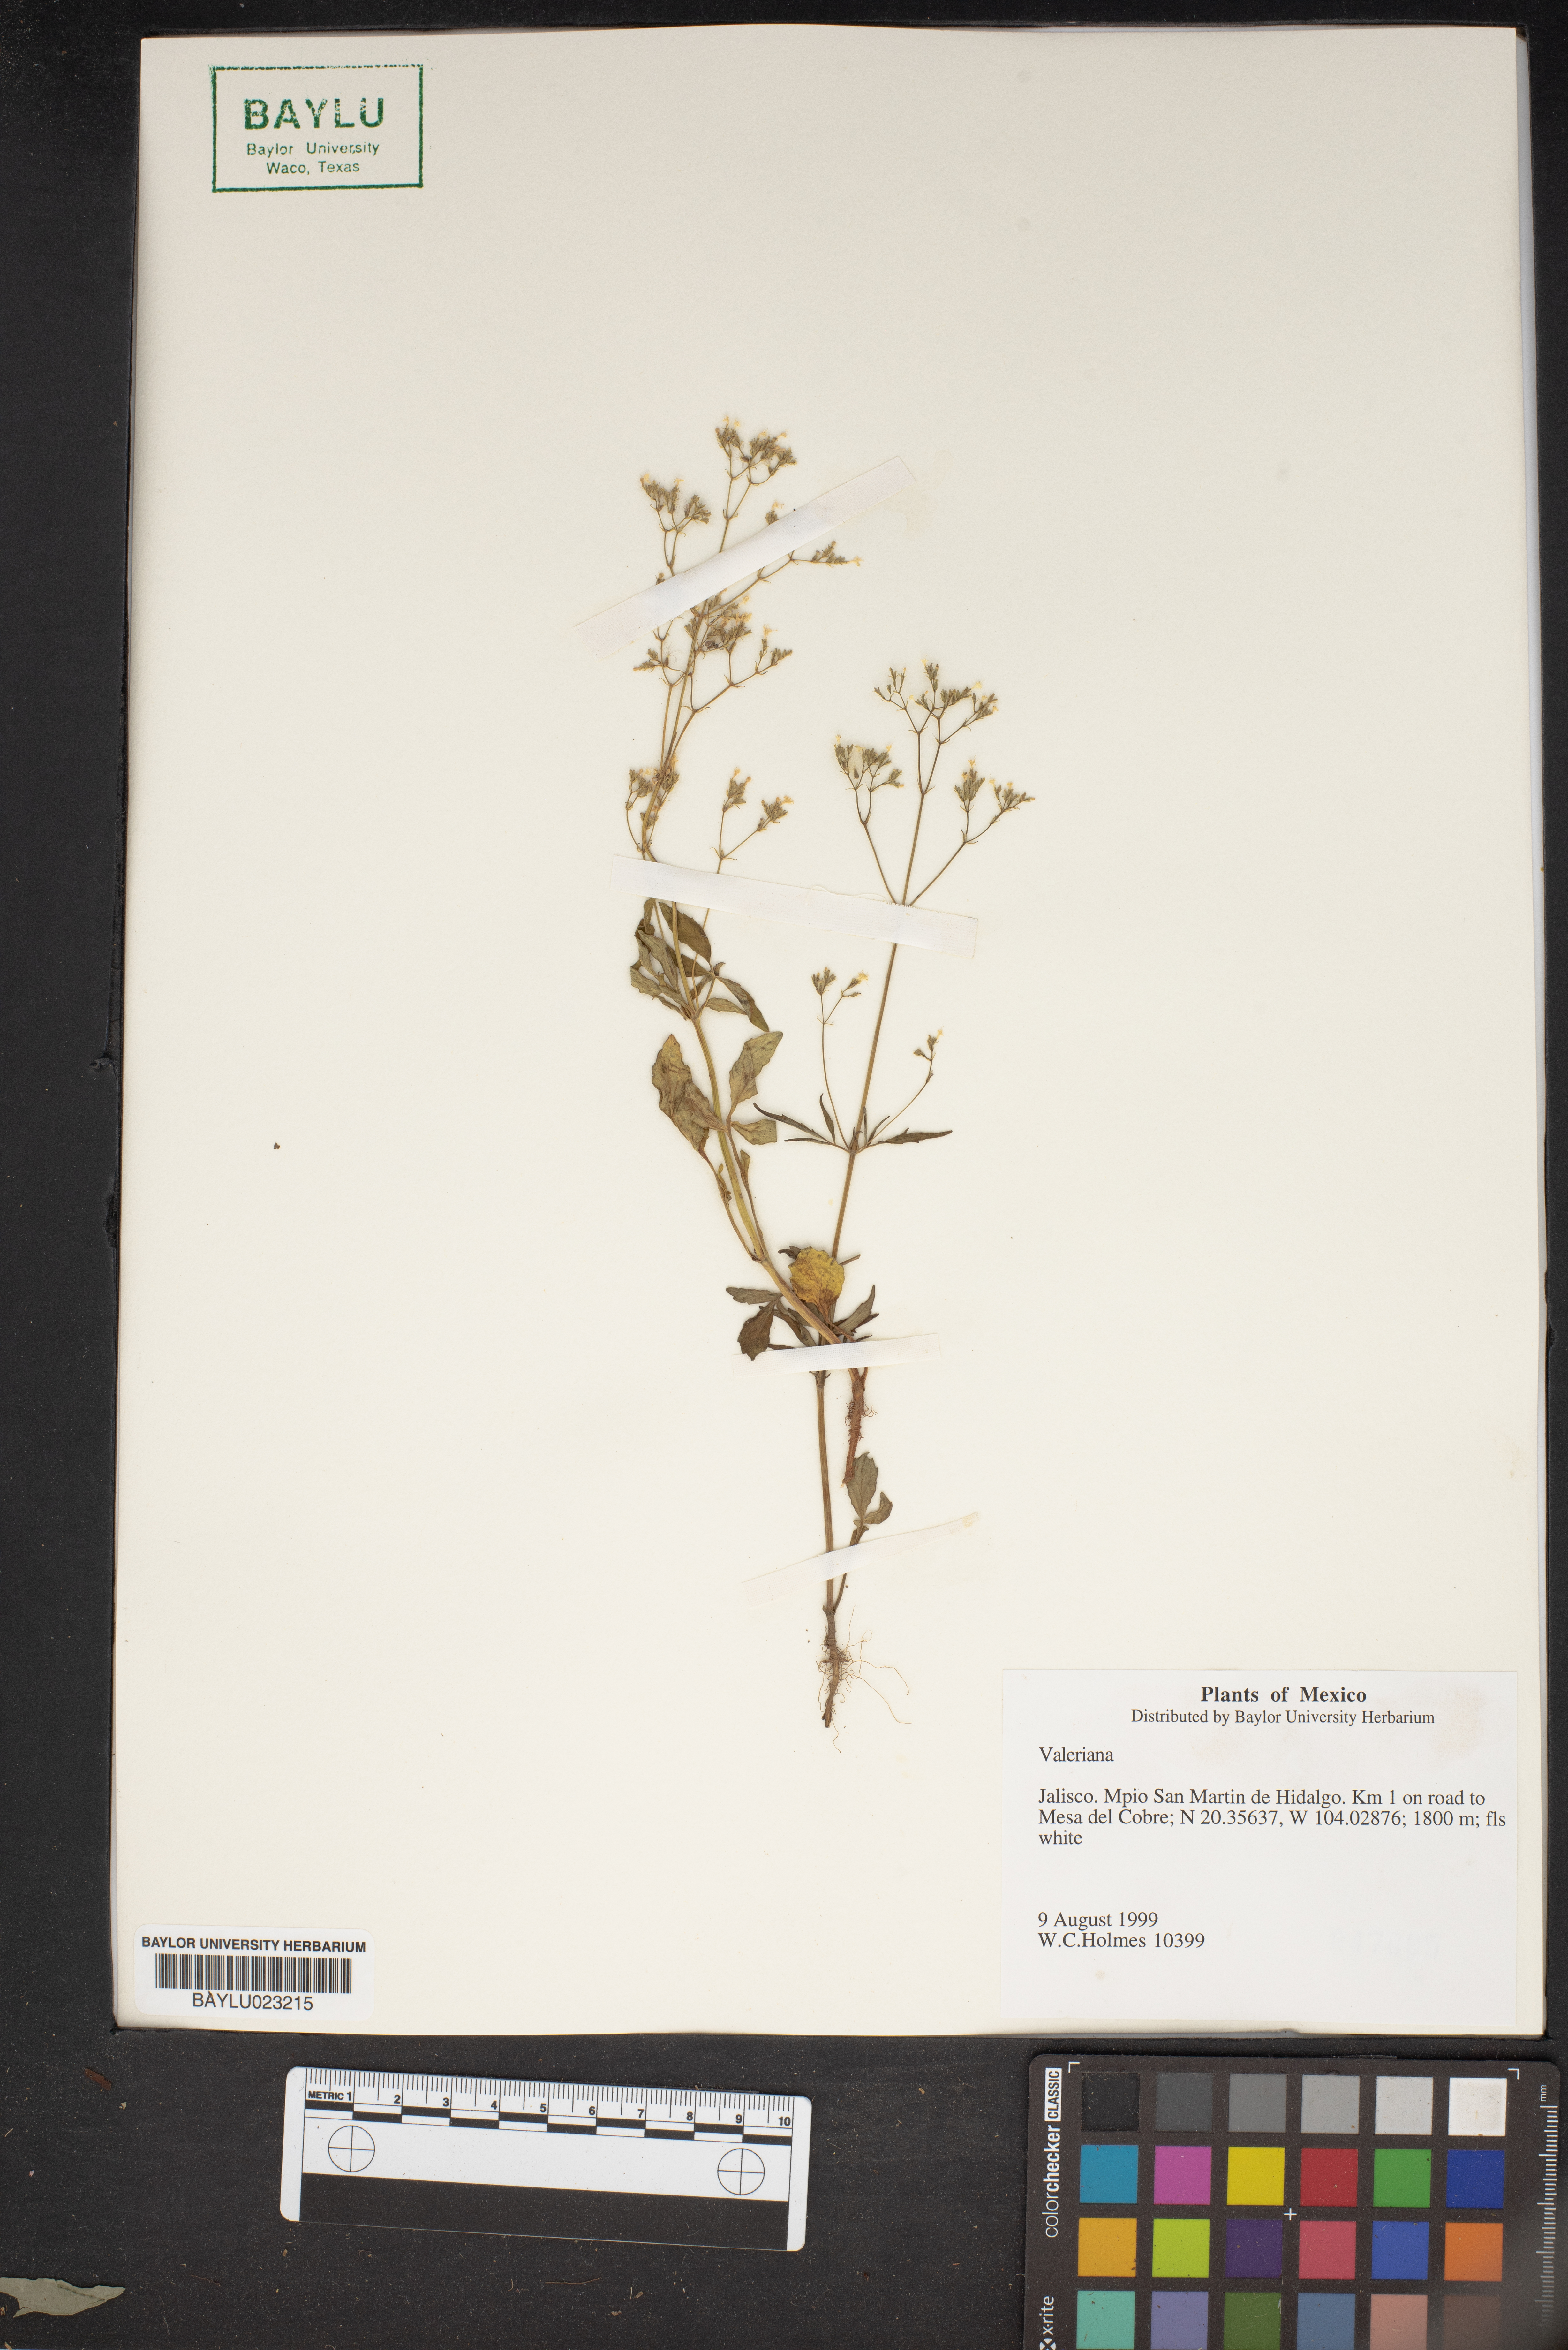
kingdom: Plantae
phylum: Tracheophyta
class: Magnoliopsida
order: Dipsacales
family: Caprifoliaceae
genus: Valeriana
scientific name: Valeriana
